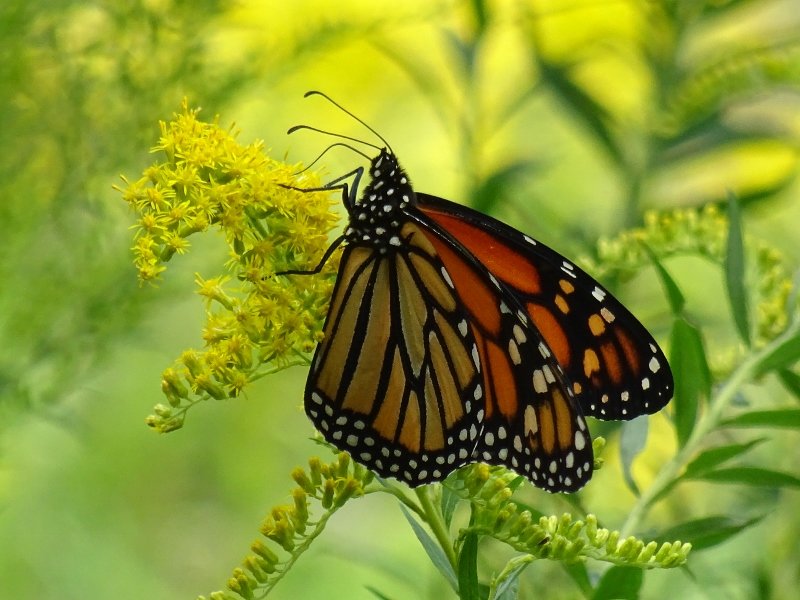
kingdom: Animalia
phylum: Arthropoda
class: Insecta
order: Lepidoptera
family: Nymphalidae
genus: Danaus
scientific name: Danaus plexippus
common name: Monarch
